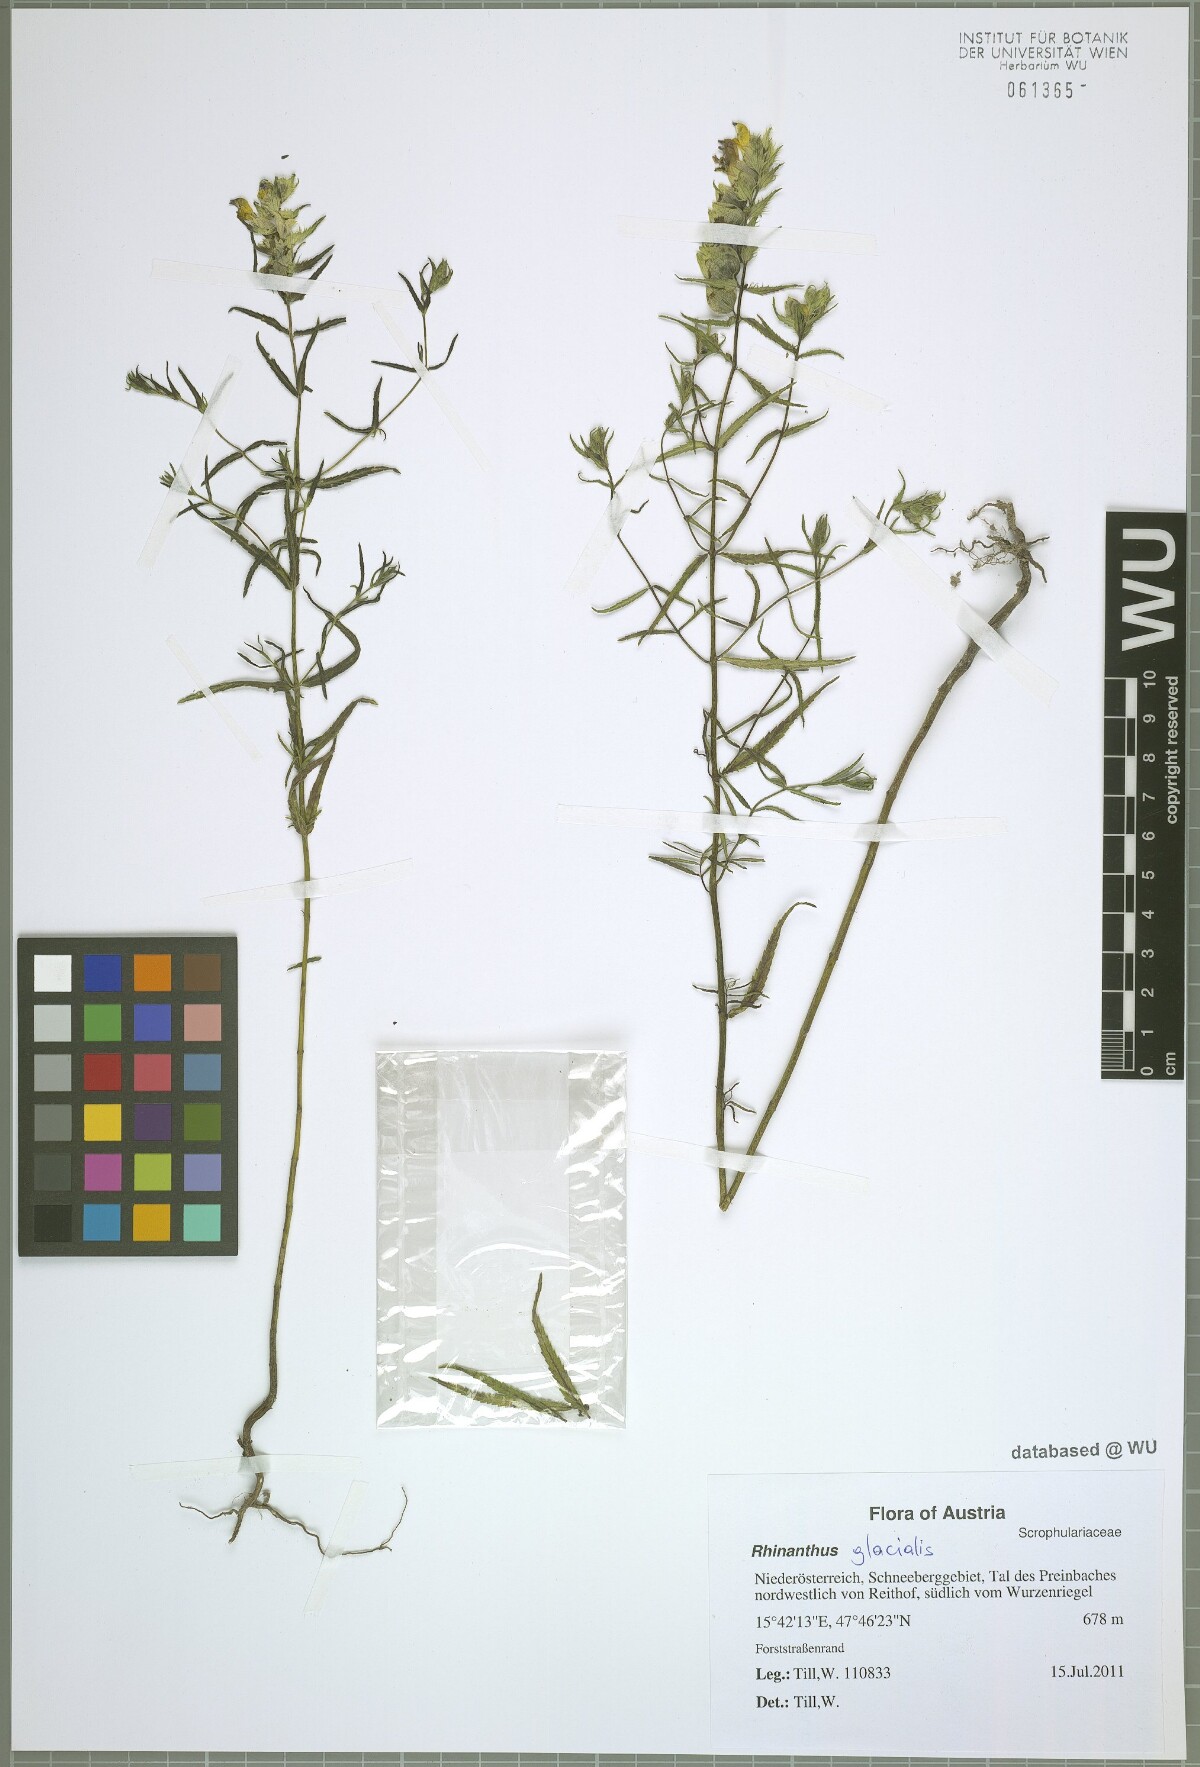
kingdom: Plantae
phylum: Tracheophyta
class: Magnoliopsida
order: Lamiales
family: Orobanchaceae
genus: Rhinanthus
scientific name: Rhinanthus glacialis
